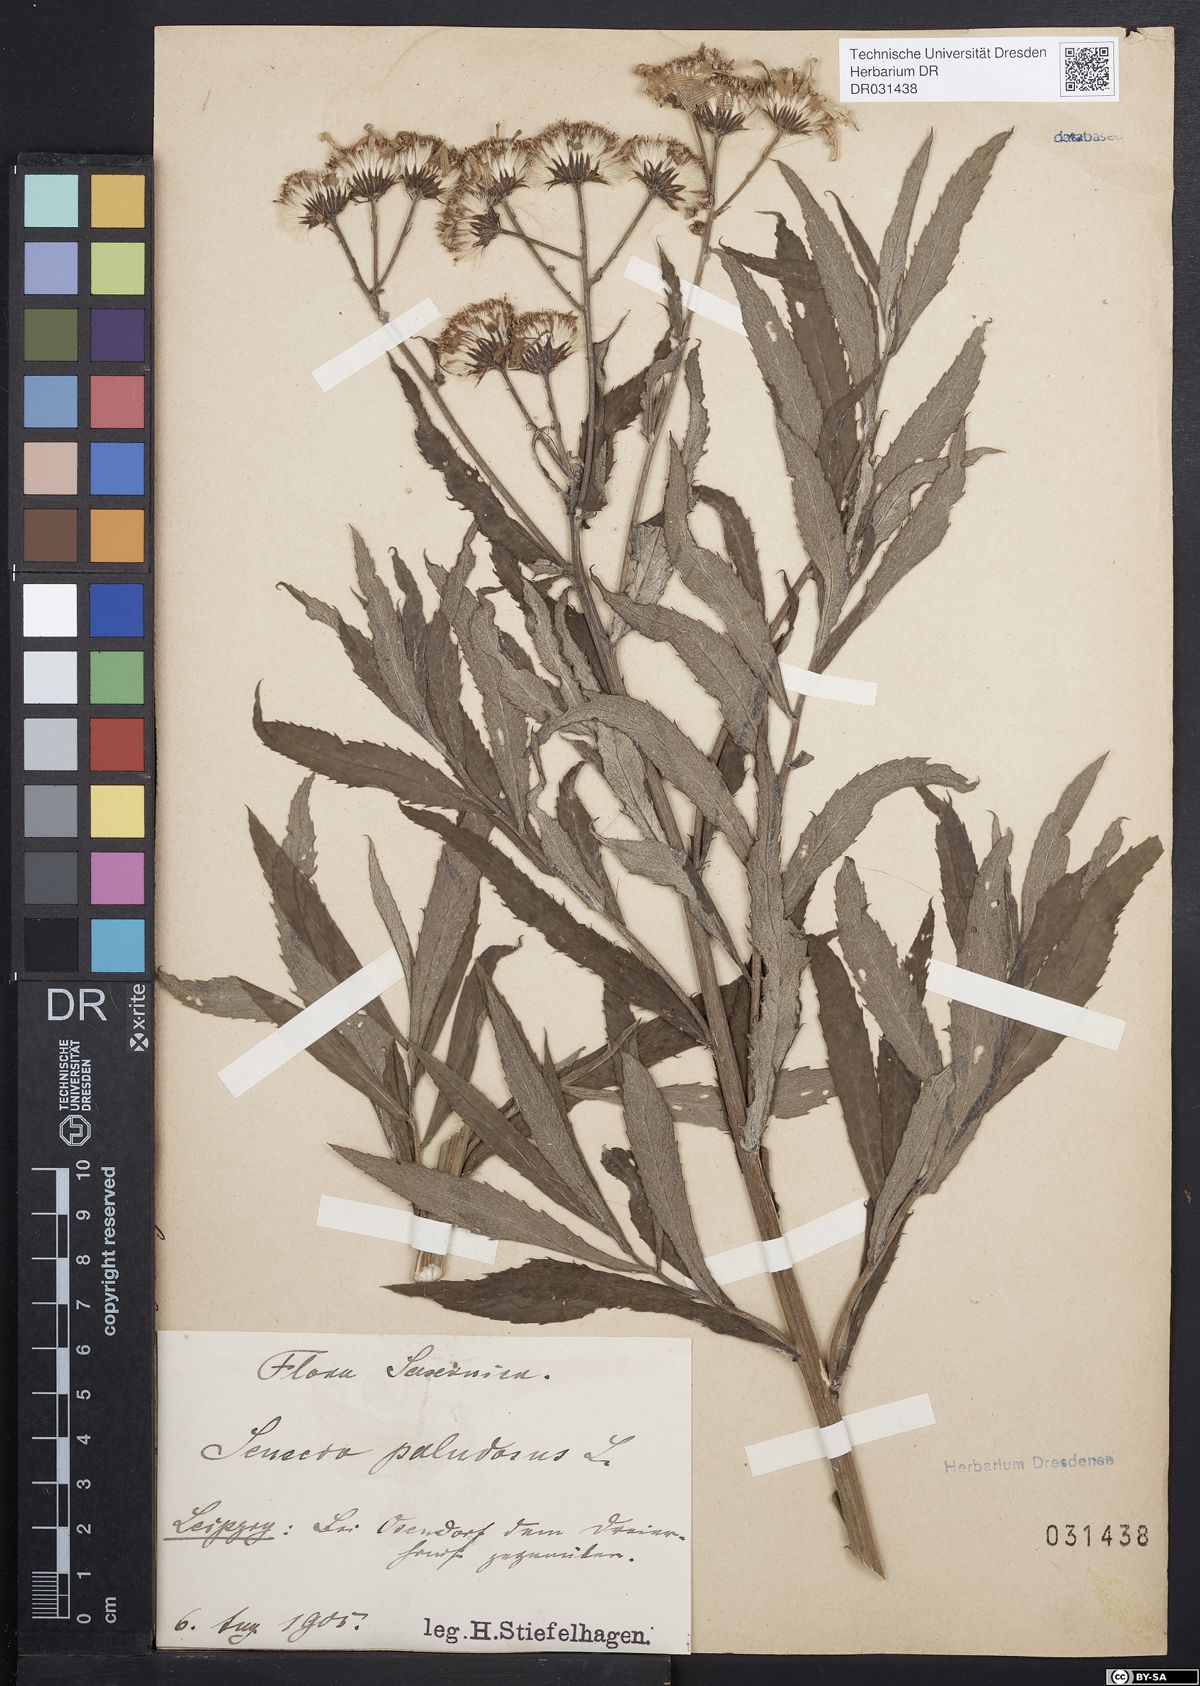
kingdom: Plantae
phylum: Tracheophyta
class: Magnoliopsida
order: Asterales
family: Asteraceae
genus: Jacobaea
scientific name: Jacobaea paludosa
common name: Fen ragwort
